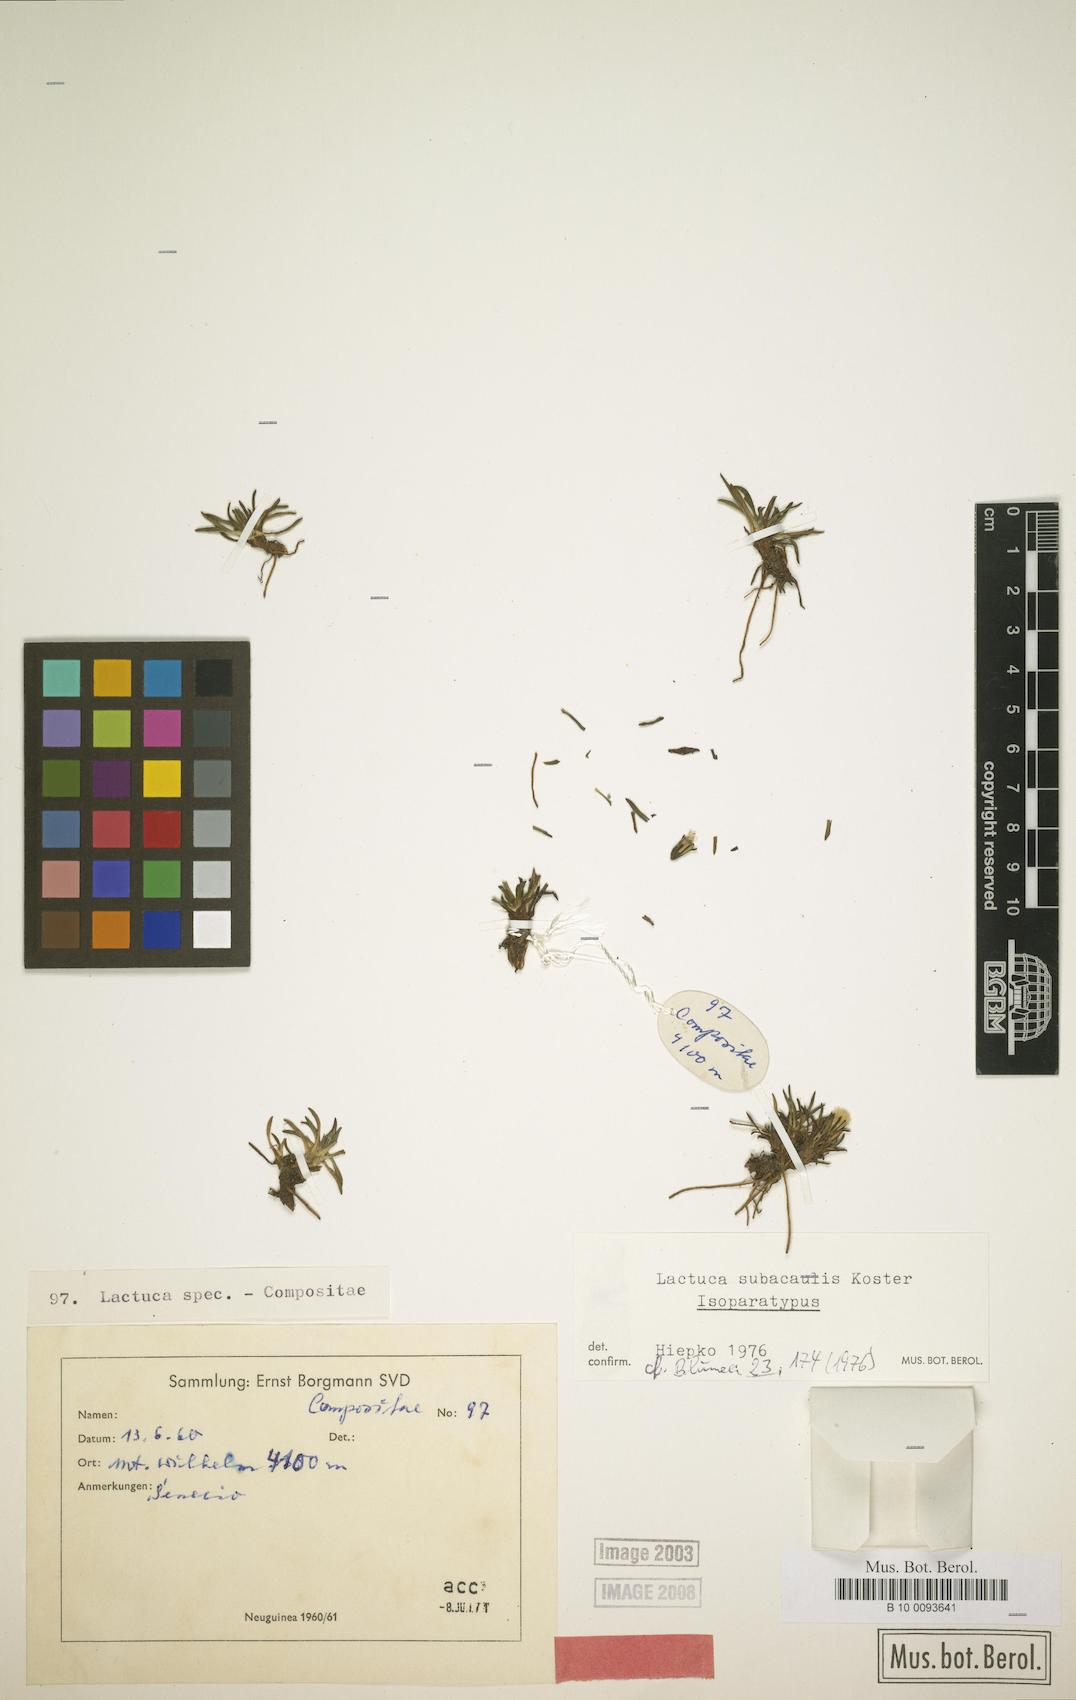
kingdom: Plantae
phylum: Tracheophyta
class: Magnoliopsida
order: Asterales
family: Asteraceae
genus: Ixeridium
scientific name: Ixeridium subacaule
